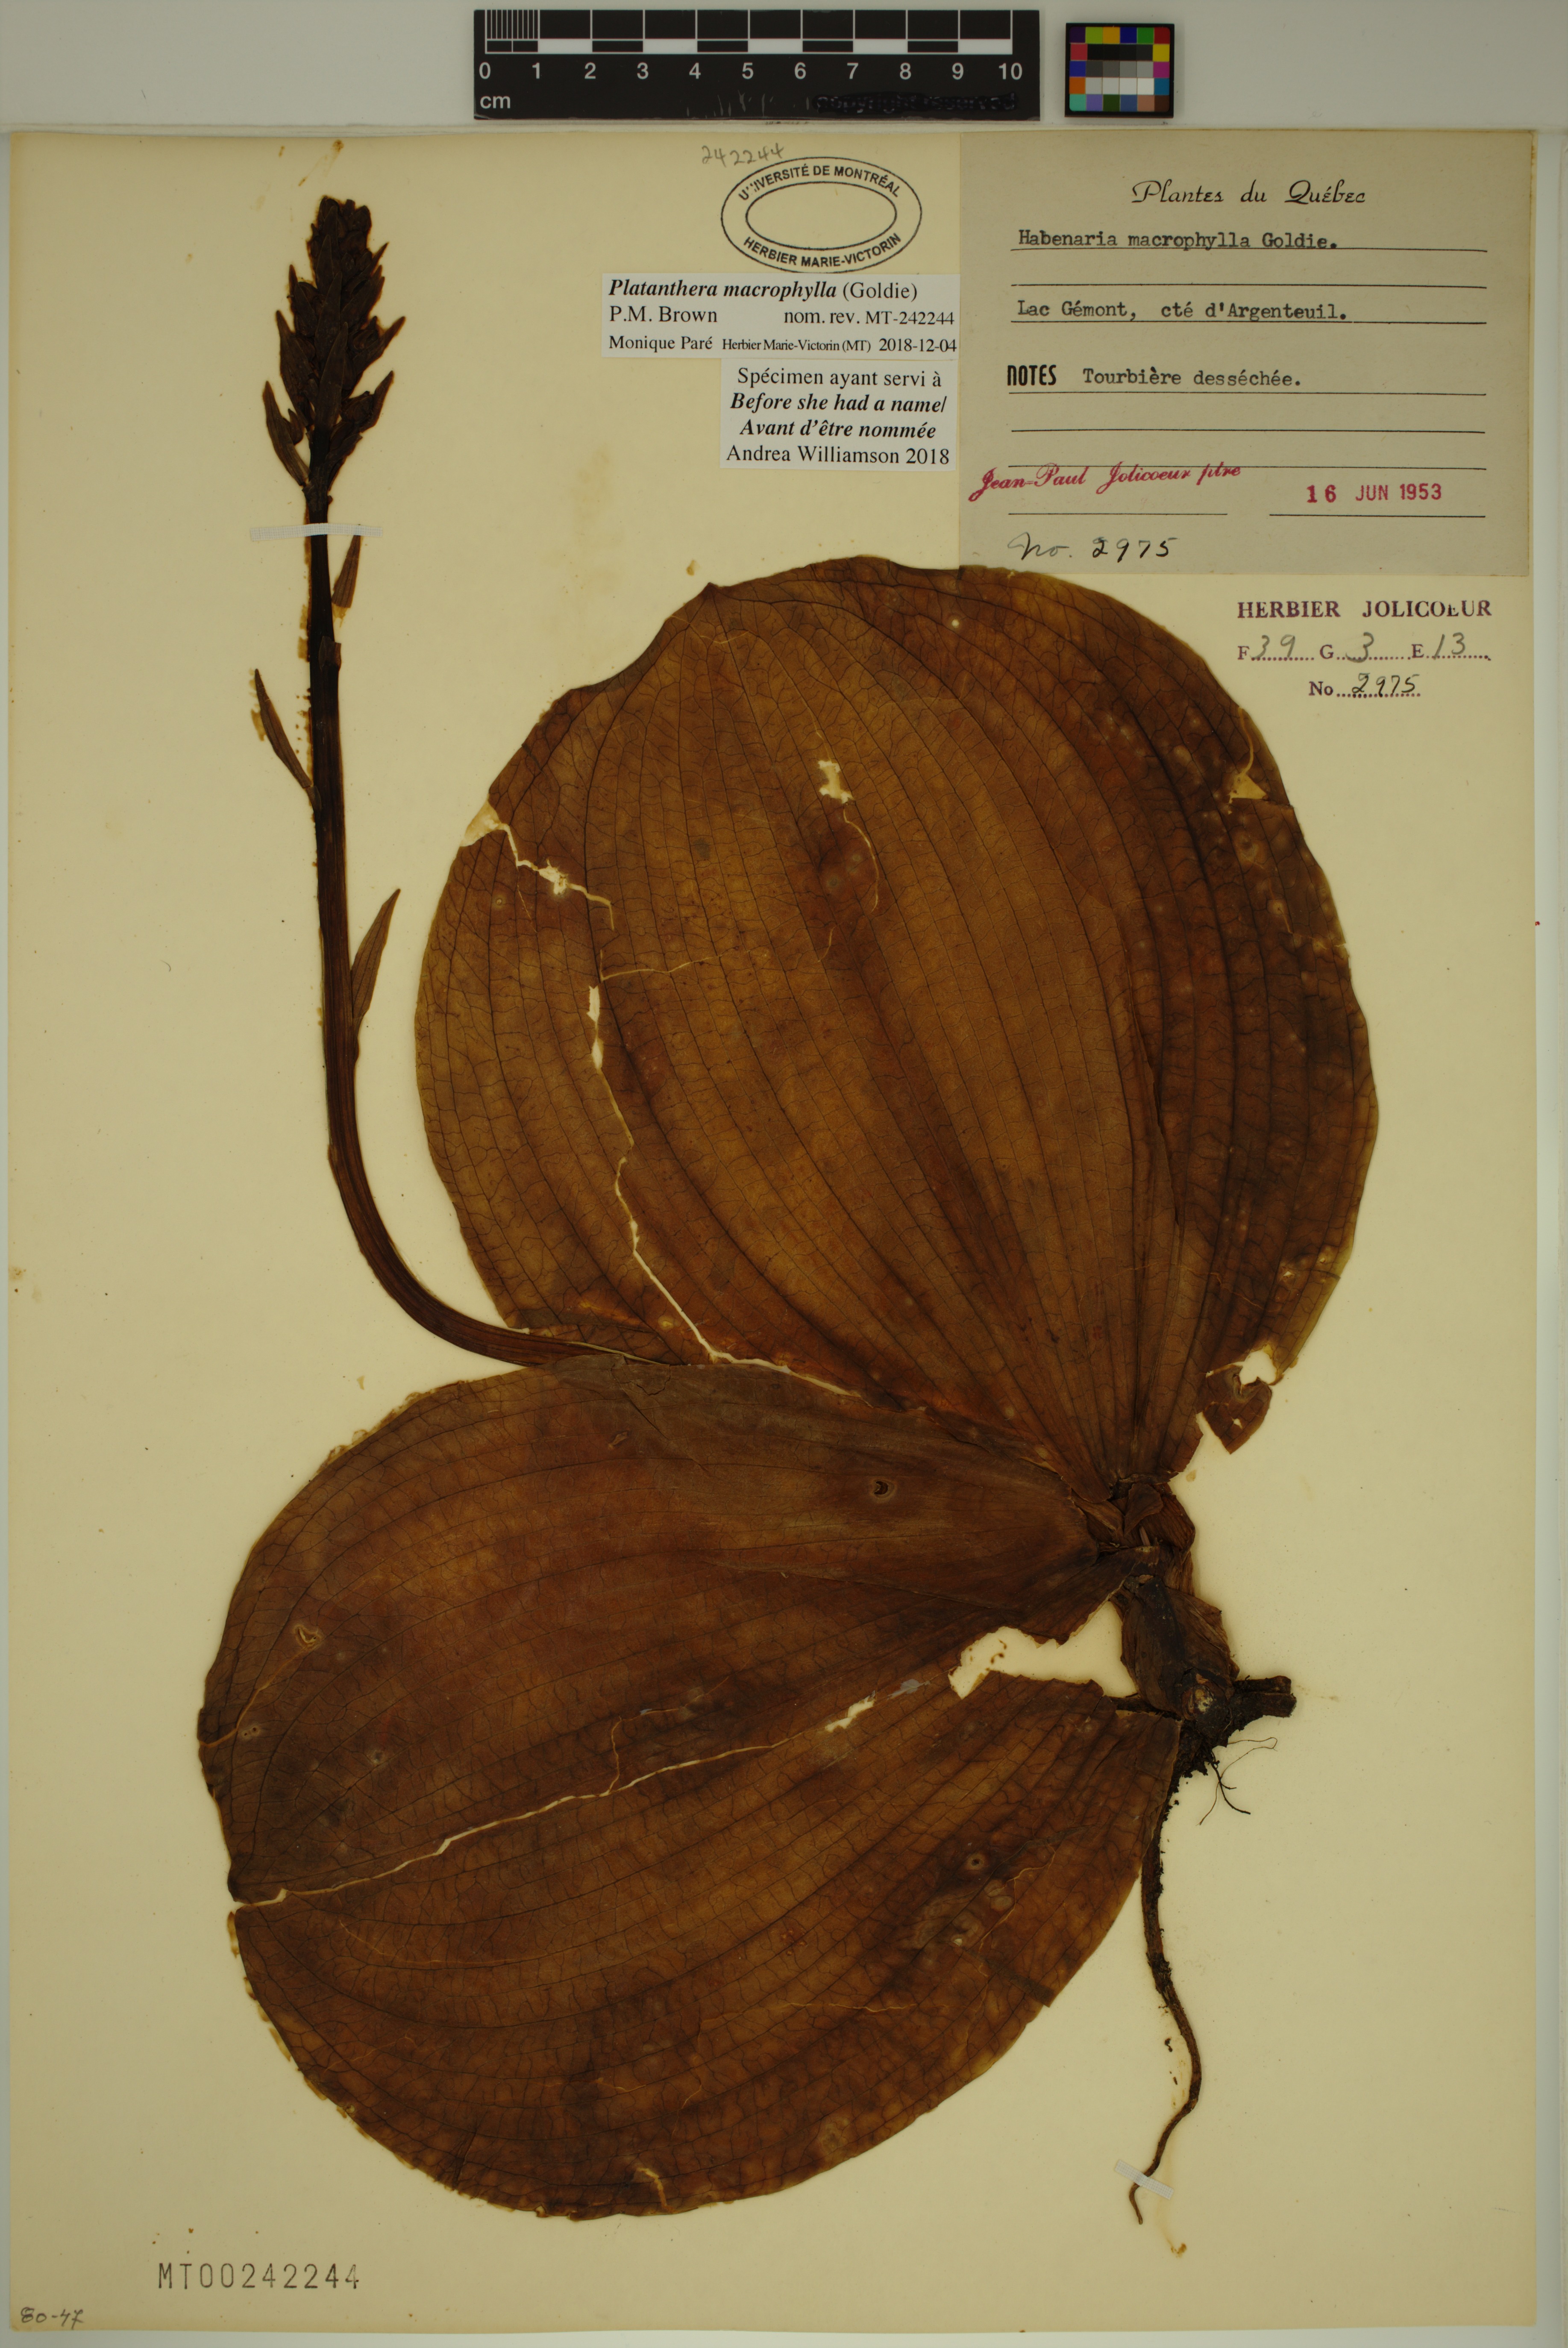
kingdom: Plantae
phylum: Tracheophyta
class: Liliopsida
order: Asparagales
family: Orchidaceae
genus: Platanthera
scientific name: Platanthera orbiculata
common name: Large round-leaved orchid
